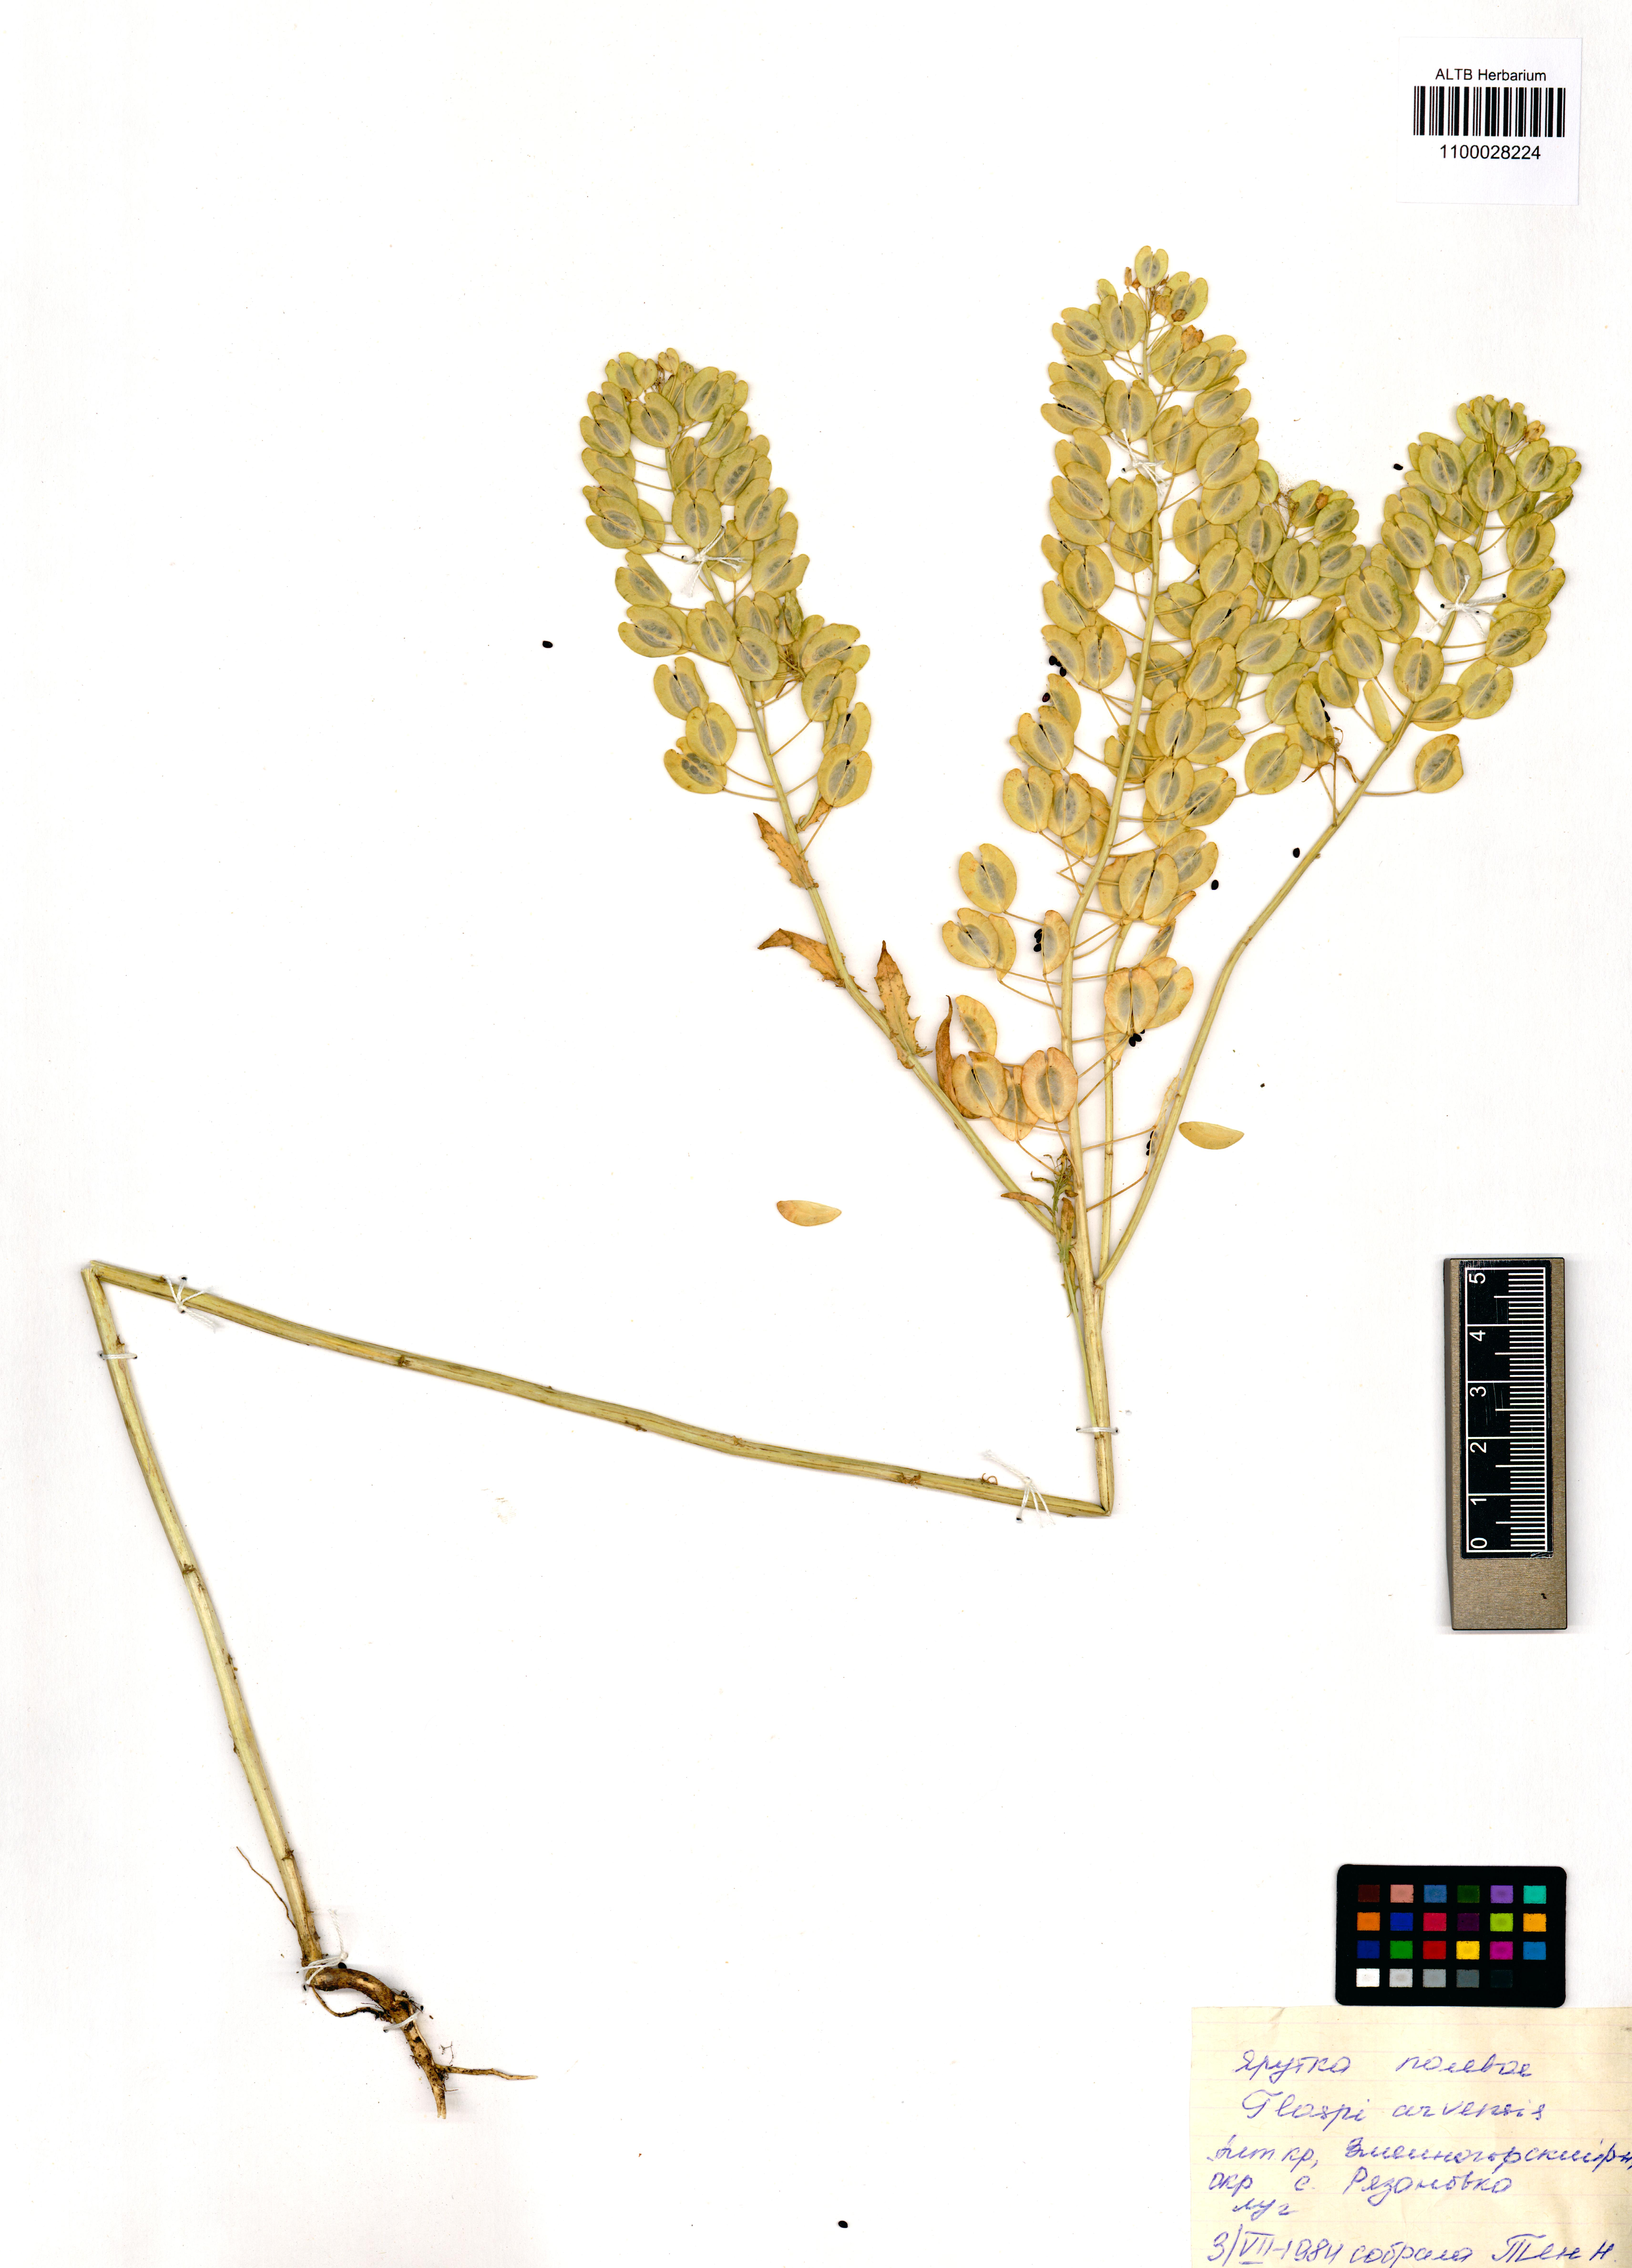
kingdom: Plantae
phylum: Tracheophyta
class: Magnoliopsida
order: Brassicales
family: Brassicaceae
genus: Thlaspi
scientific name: Thlaspi arvense
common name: Field pennycress
